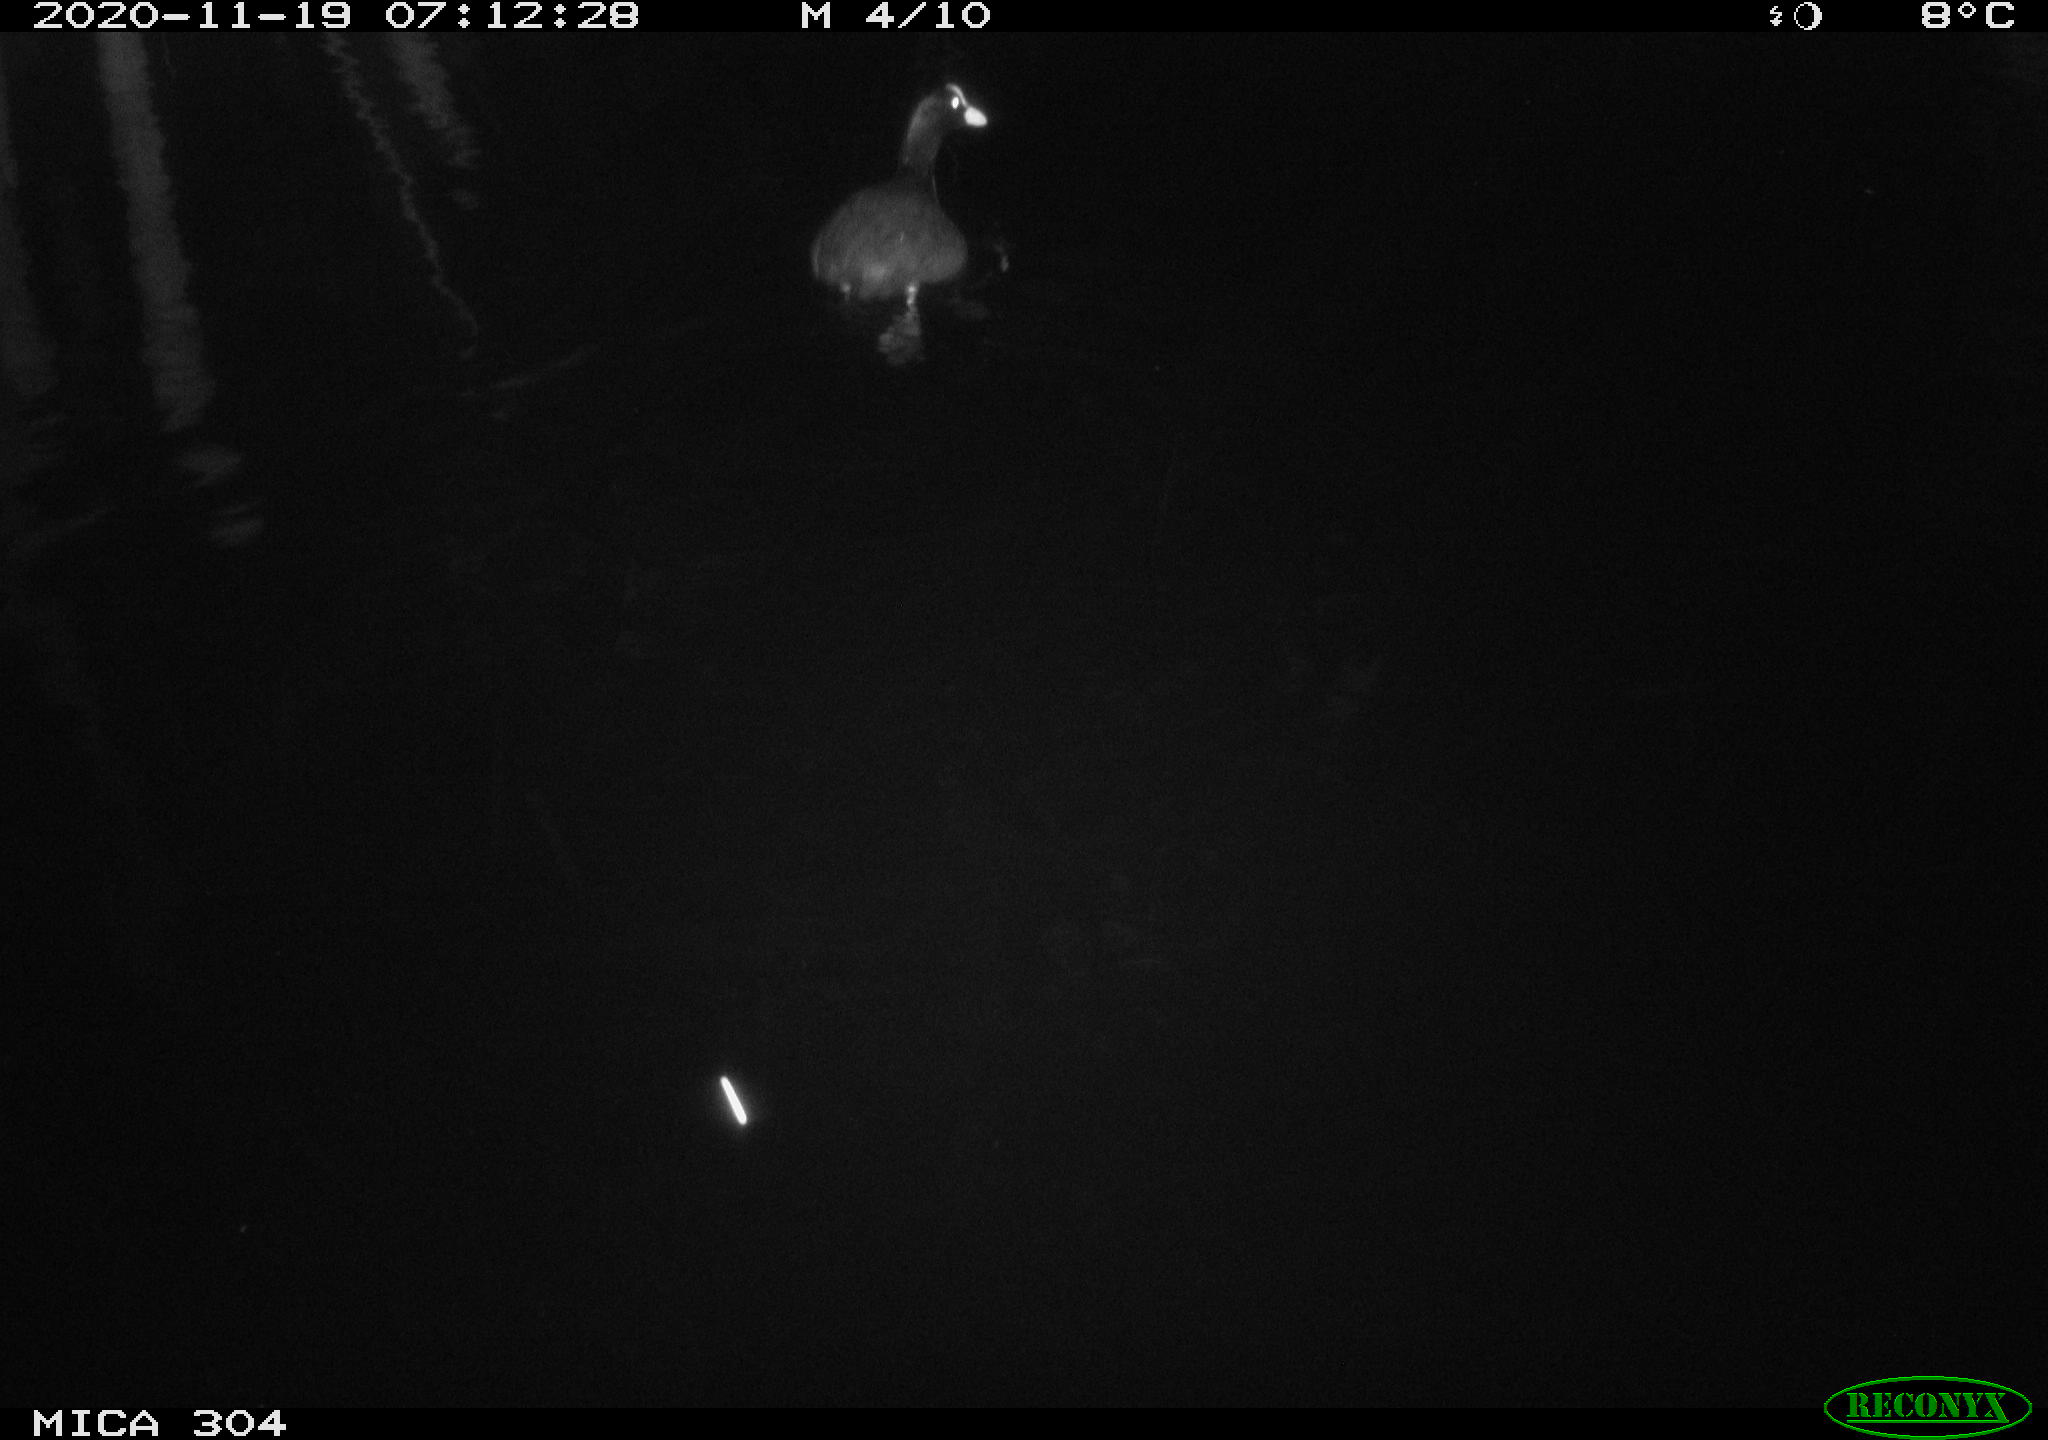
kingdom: Animalia
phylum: Chordata
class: Aves
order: Gruiformes
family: Rallidae
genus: Fulica
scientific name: Fulica atra
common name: Eurasian coot
